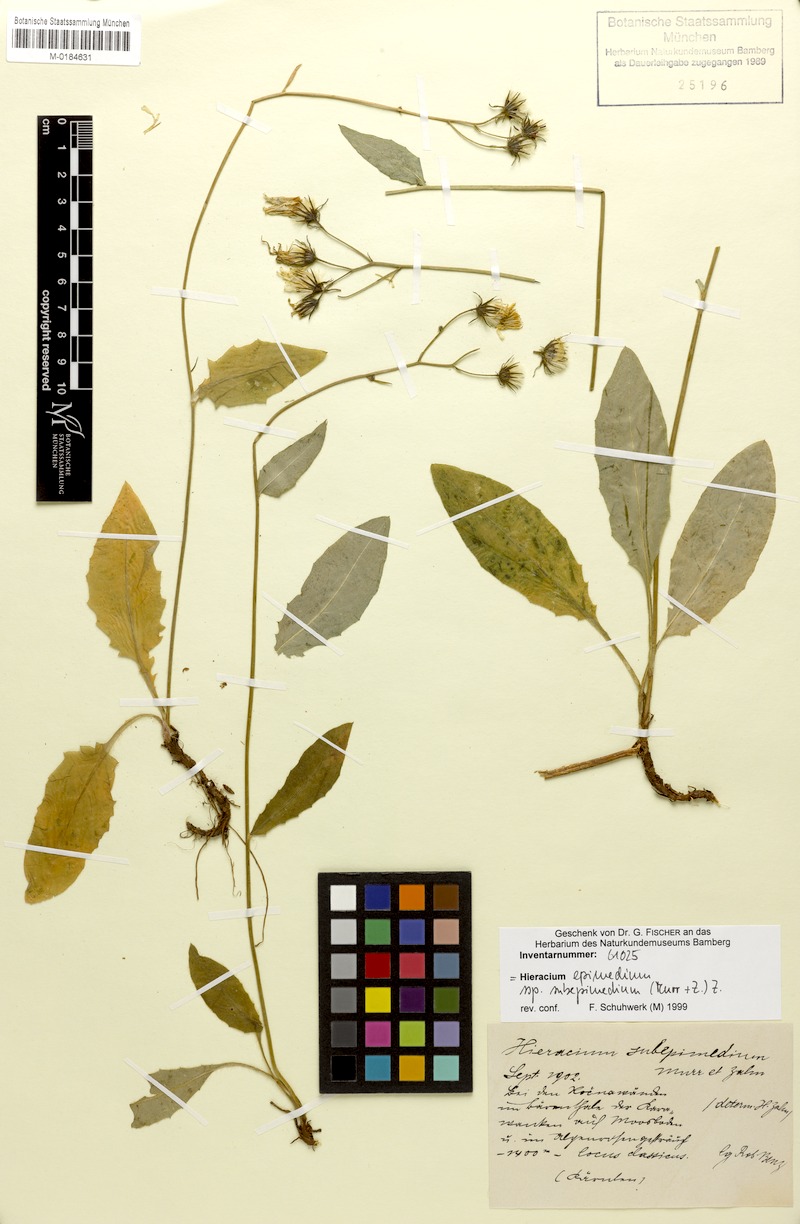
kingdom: Plantae
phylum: Tracheophyta
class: Magnoliopsida
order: Asterales
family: Asteraceae
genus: Hieracium
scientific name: Hieracium froelichianum
